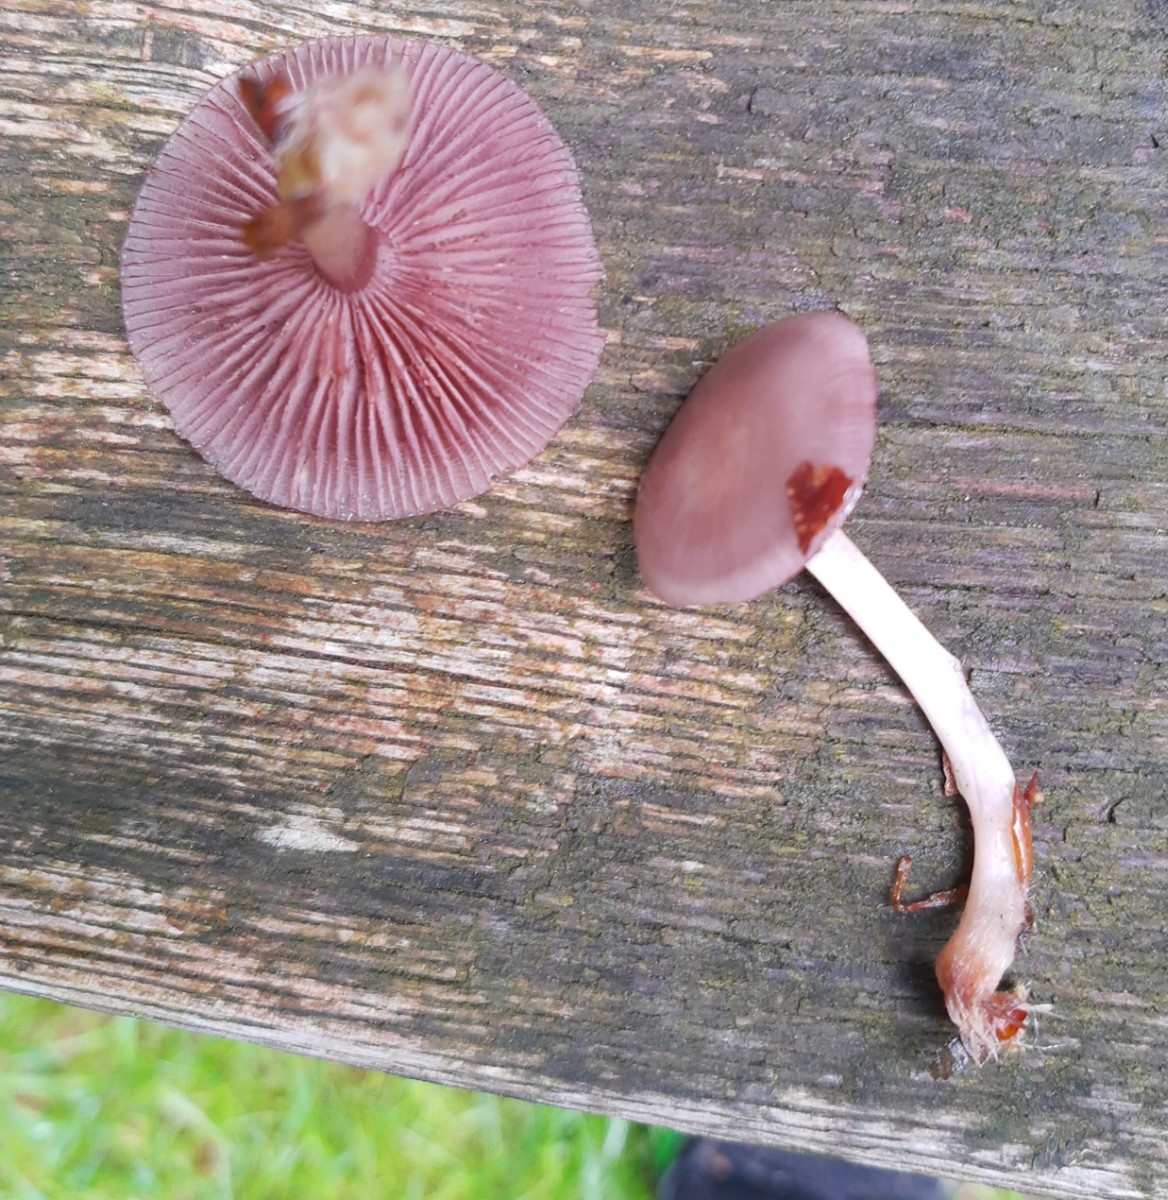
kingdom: Fungi
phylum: Basidiomycota
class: Agaricomycetes
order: Agaricales
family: Mycenaceae
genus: Mycena
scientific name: Mycena rosea
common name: rosa huesvamp
